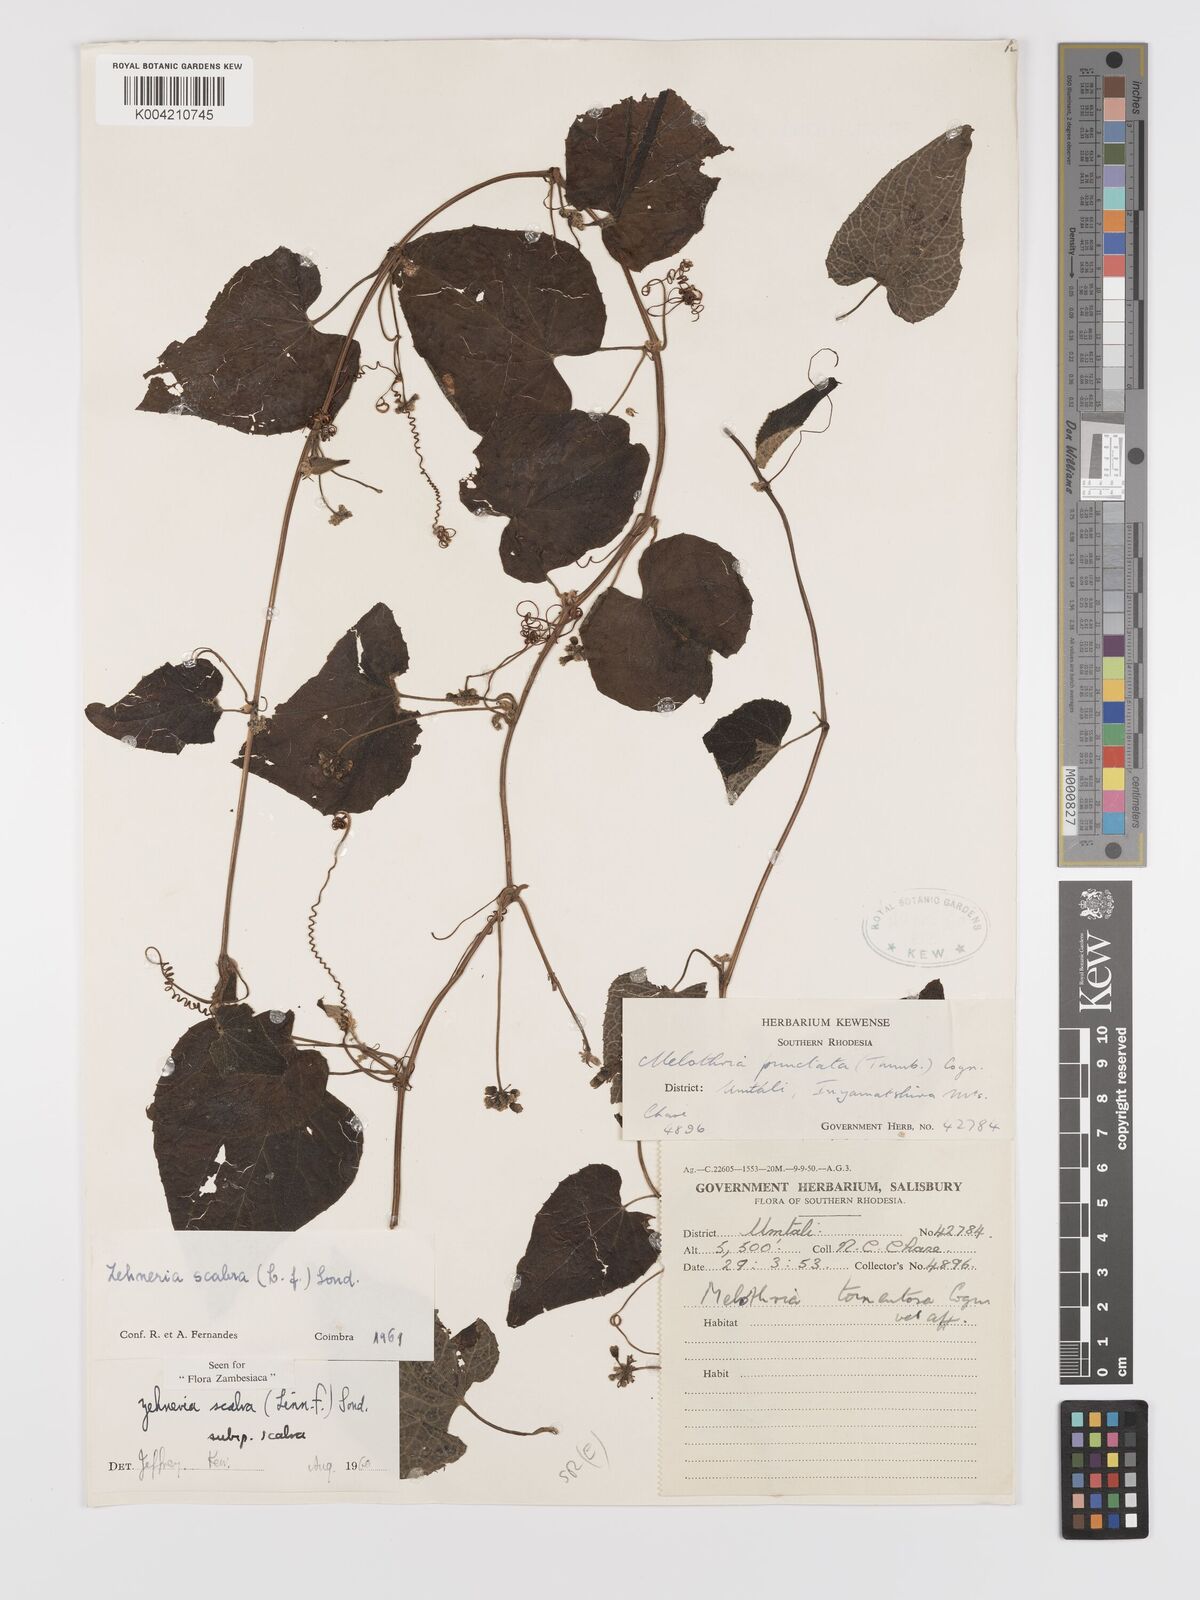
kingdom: Plantae
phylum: Tracheophyta
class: Magnoliopsida
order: Cucurbitales
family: Cucurbitaceae
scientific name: Cucurbitaceae
